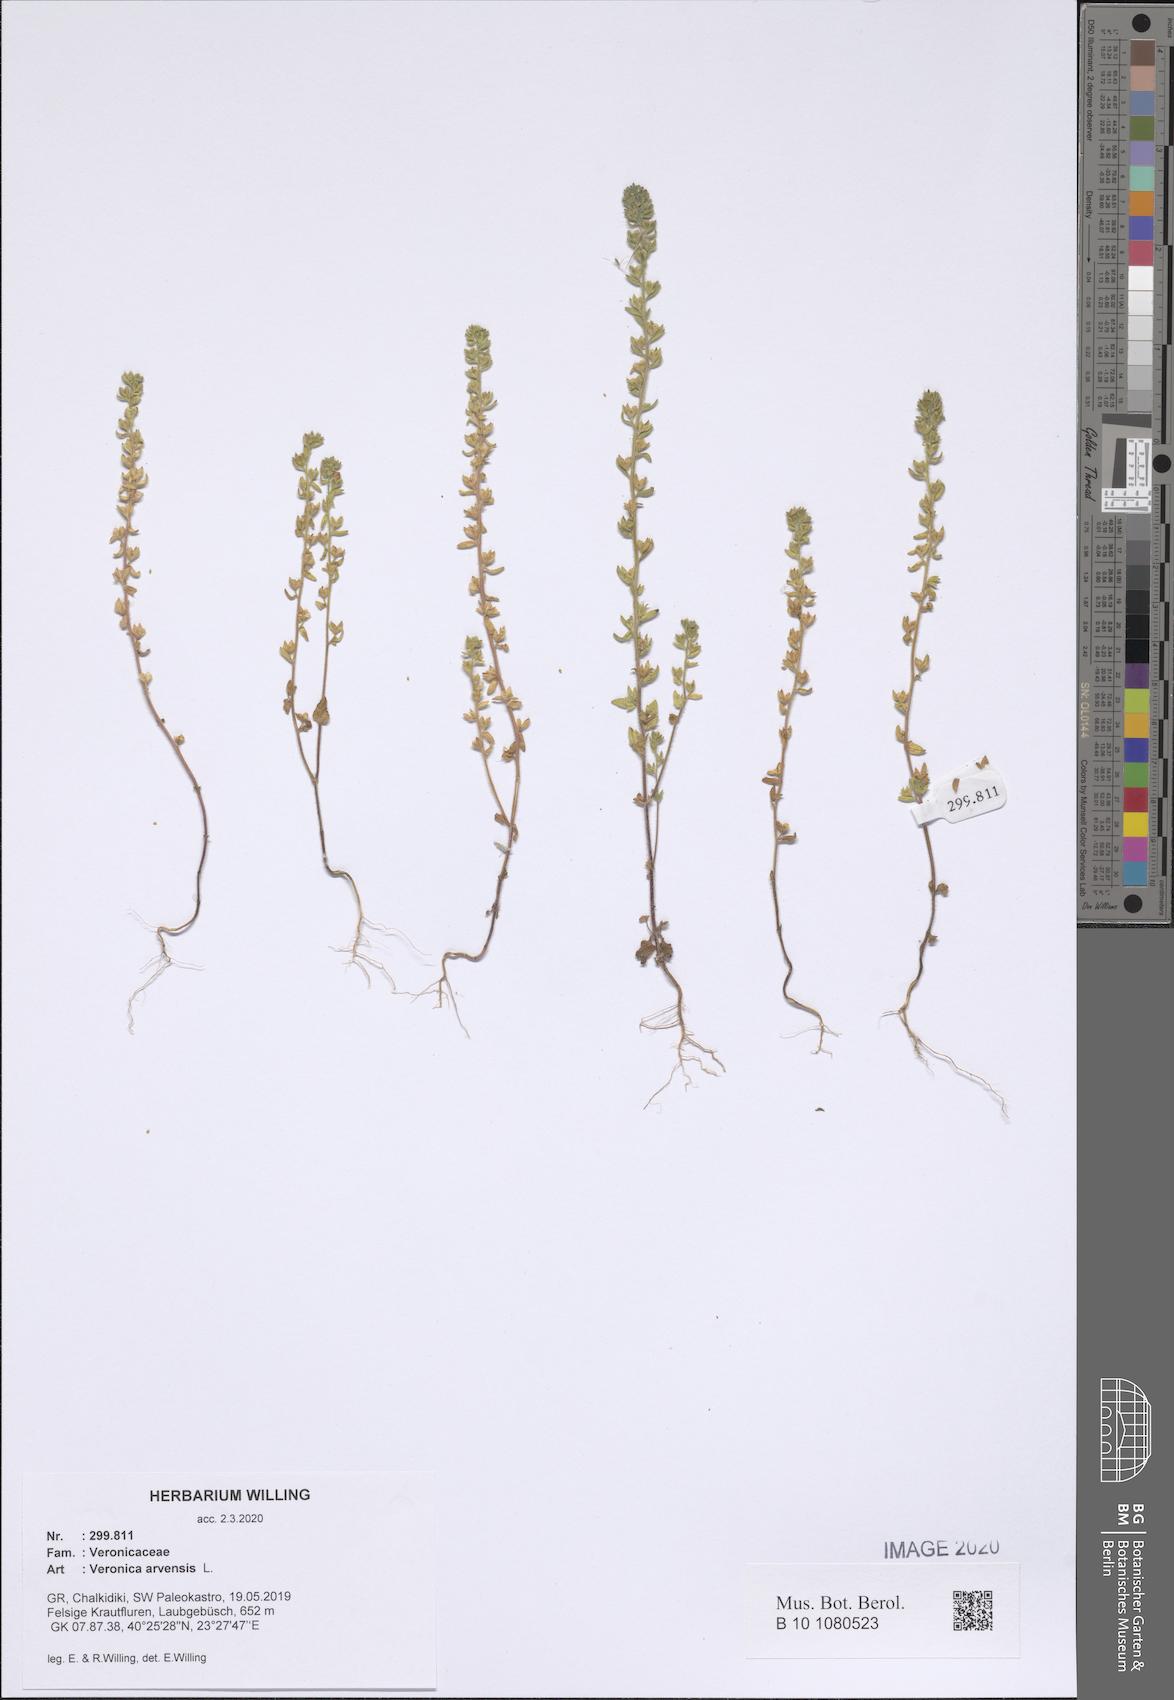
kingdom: Plantae
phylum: Tracheophyta
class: Magnoliopsida
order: Lamiales
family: Plantaginaceae
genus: Veronica
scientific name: Veronica arvensis
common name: Corn speedwell
